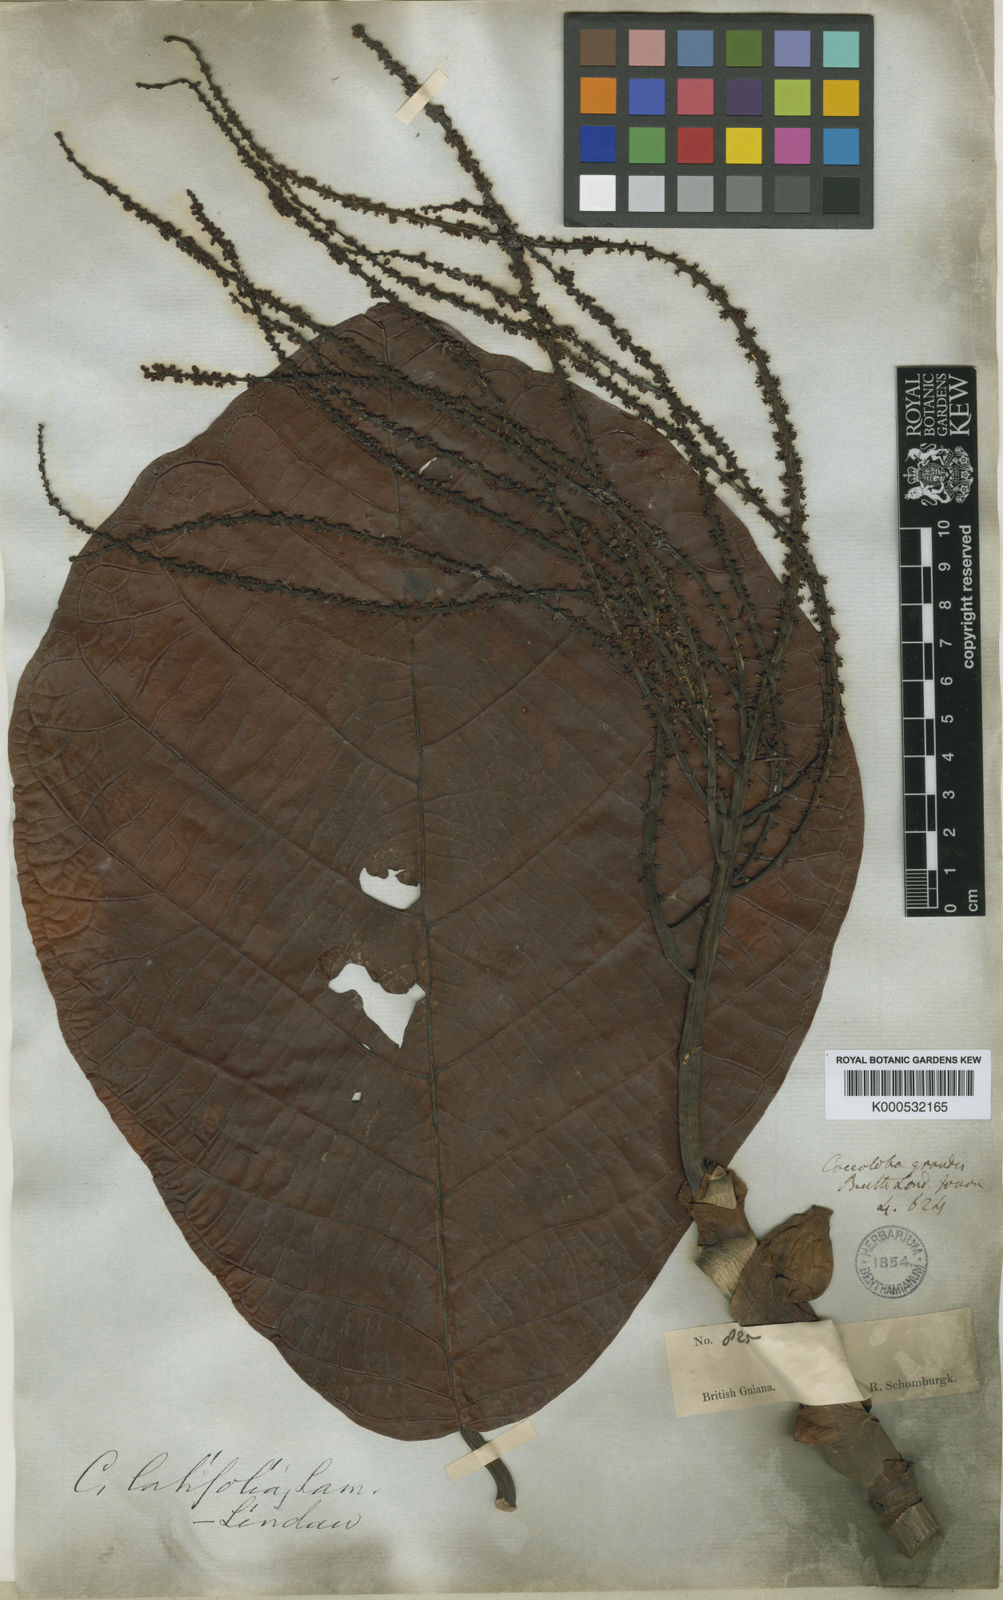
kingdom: Plantae
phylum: Tracheophyta
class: Magnoliopsida
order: Caryophyllales
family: Polygonaceae
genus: Coccoloba
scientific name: Coccoloba
